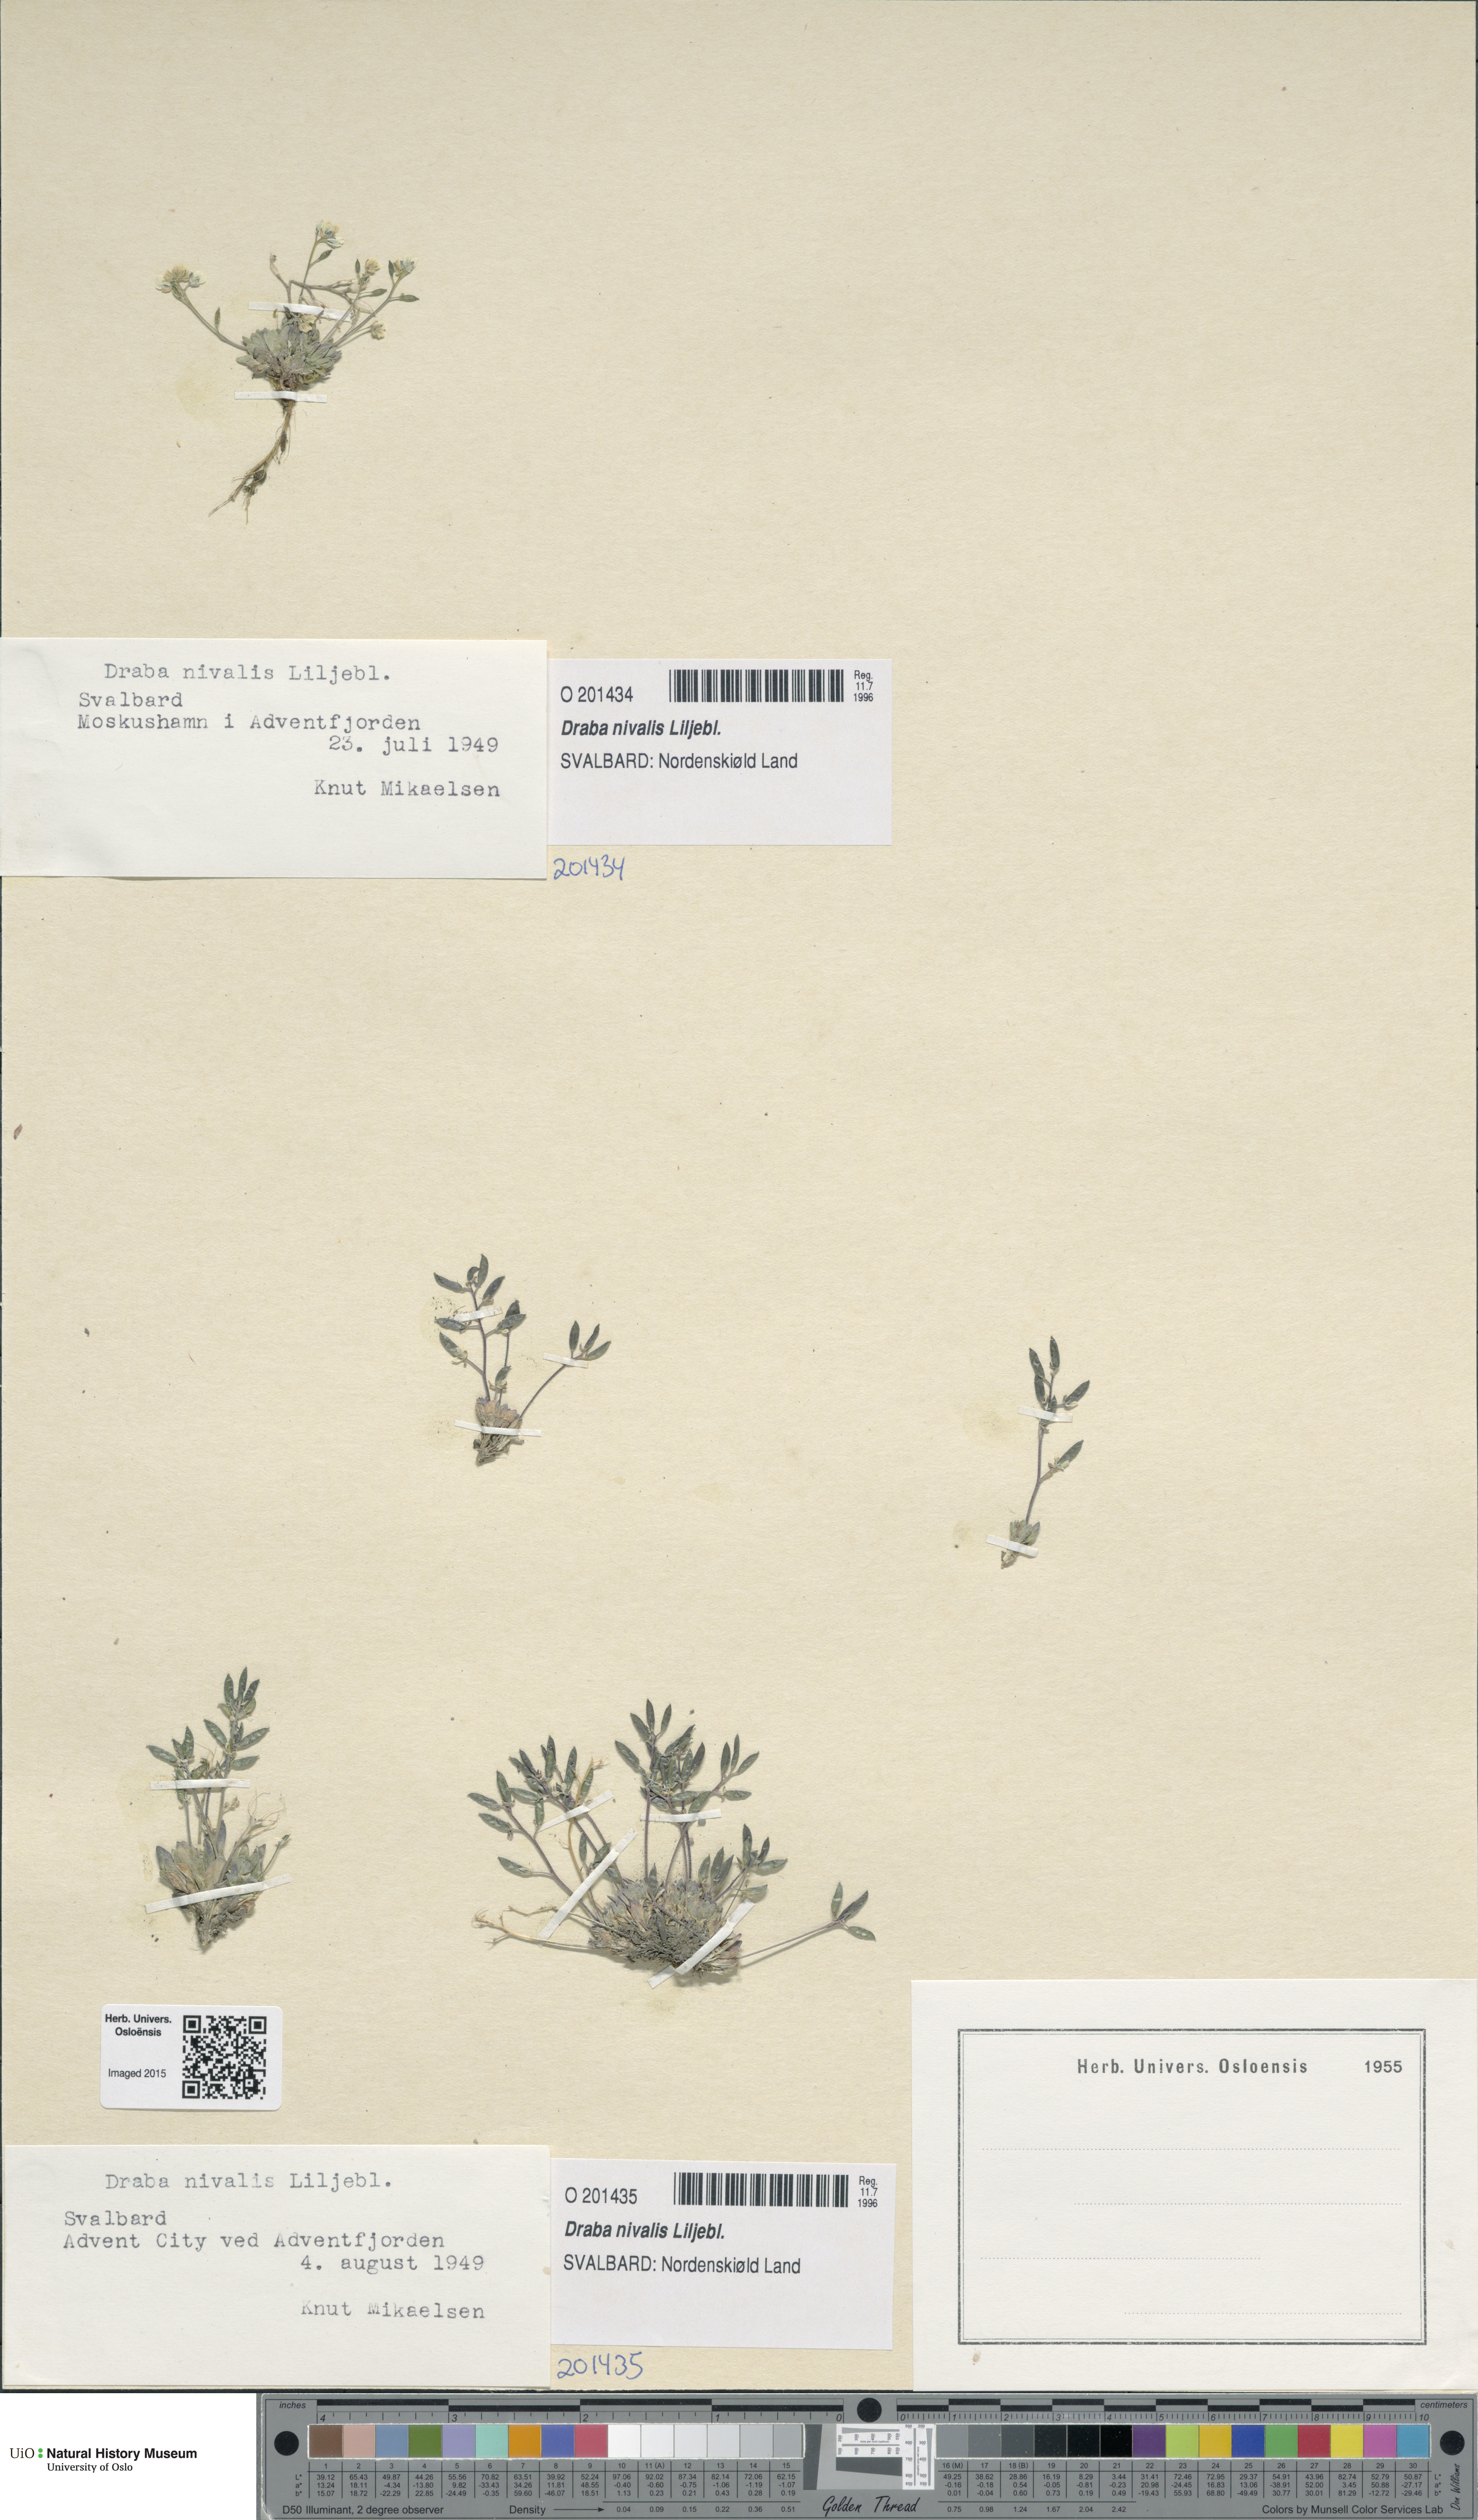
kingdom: Plantae
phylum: Tracheophyta
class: Magnoliopsida
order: Brassicales
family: Brassicaceae
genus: Draba
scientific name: Draba nivalis
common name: Snow draba
